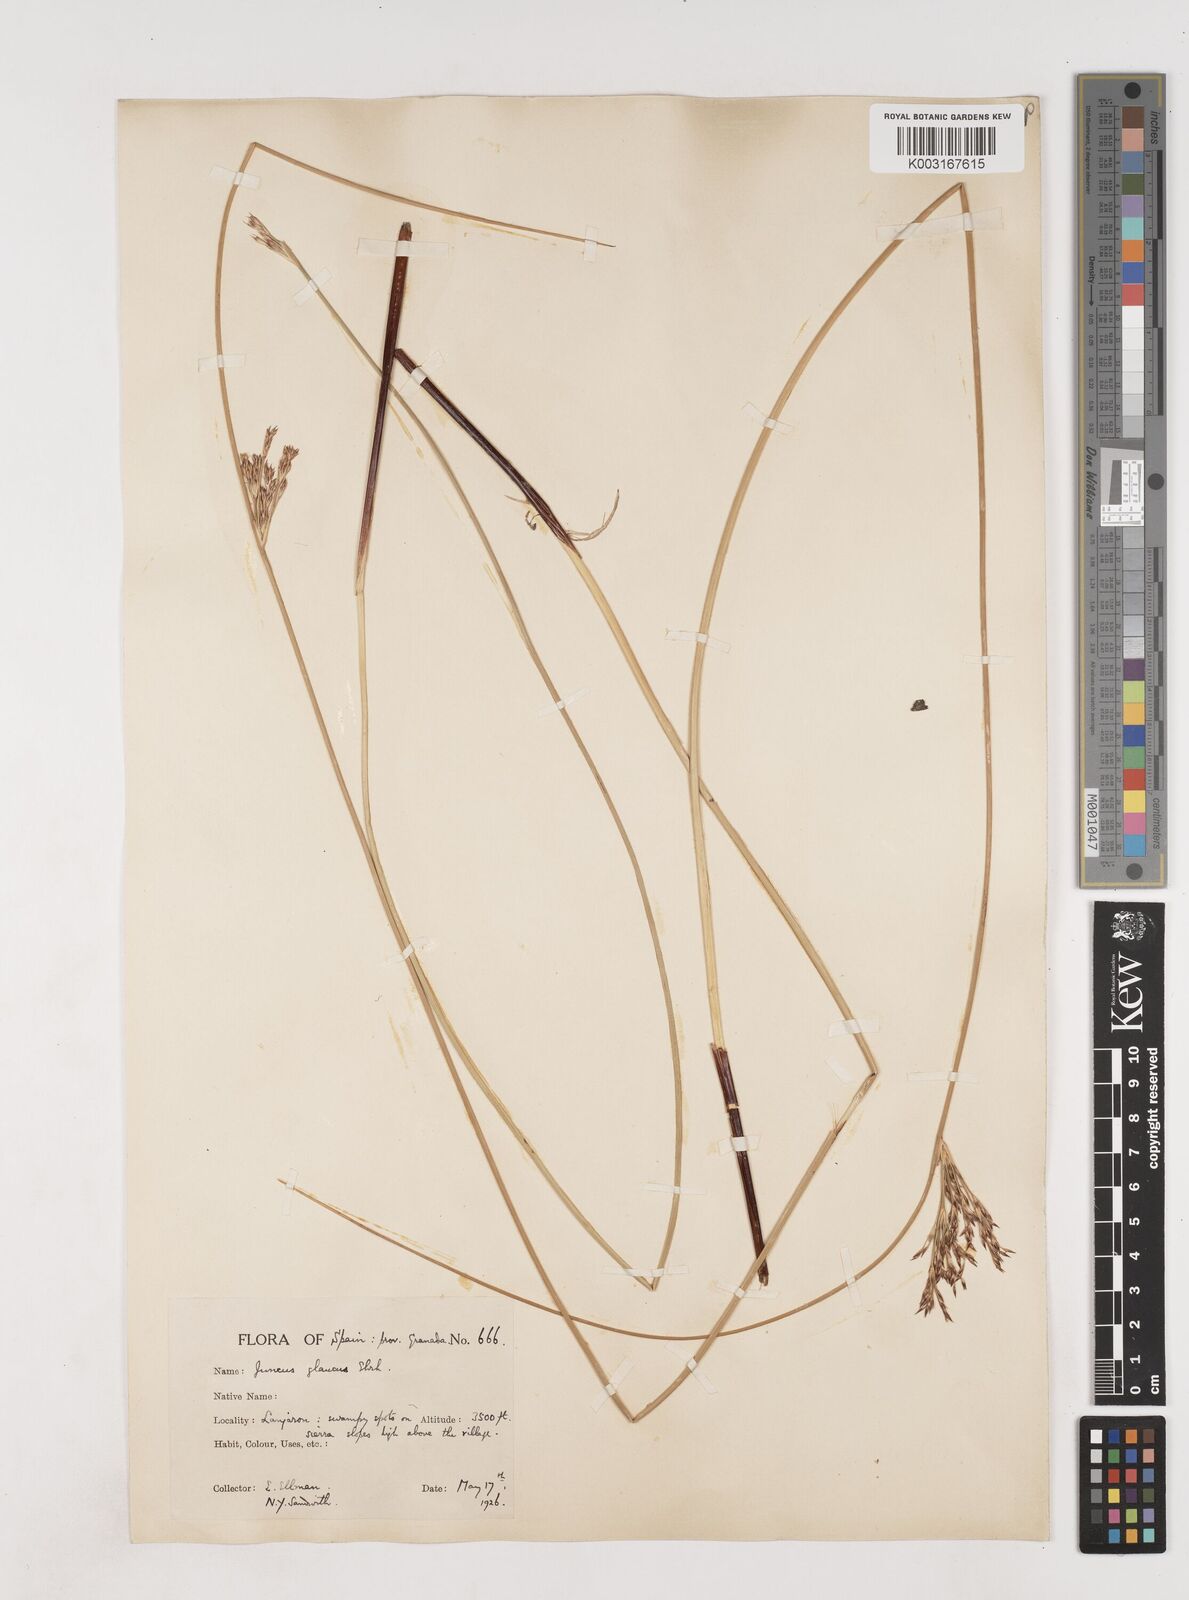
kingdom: Plantae
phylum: Tracheophyta
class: Liliopsida
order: Poales
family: Juncaceae
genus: Juncus
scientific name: Juncus inflexus
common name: Hard rush
